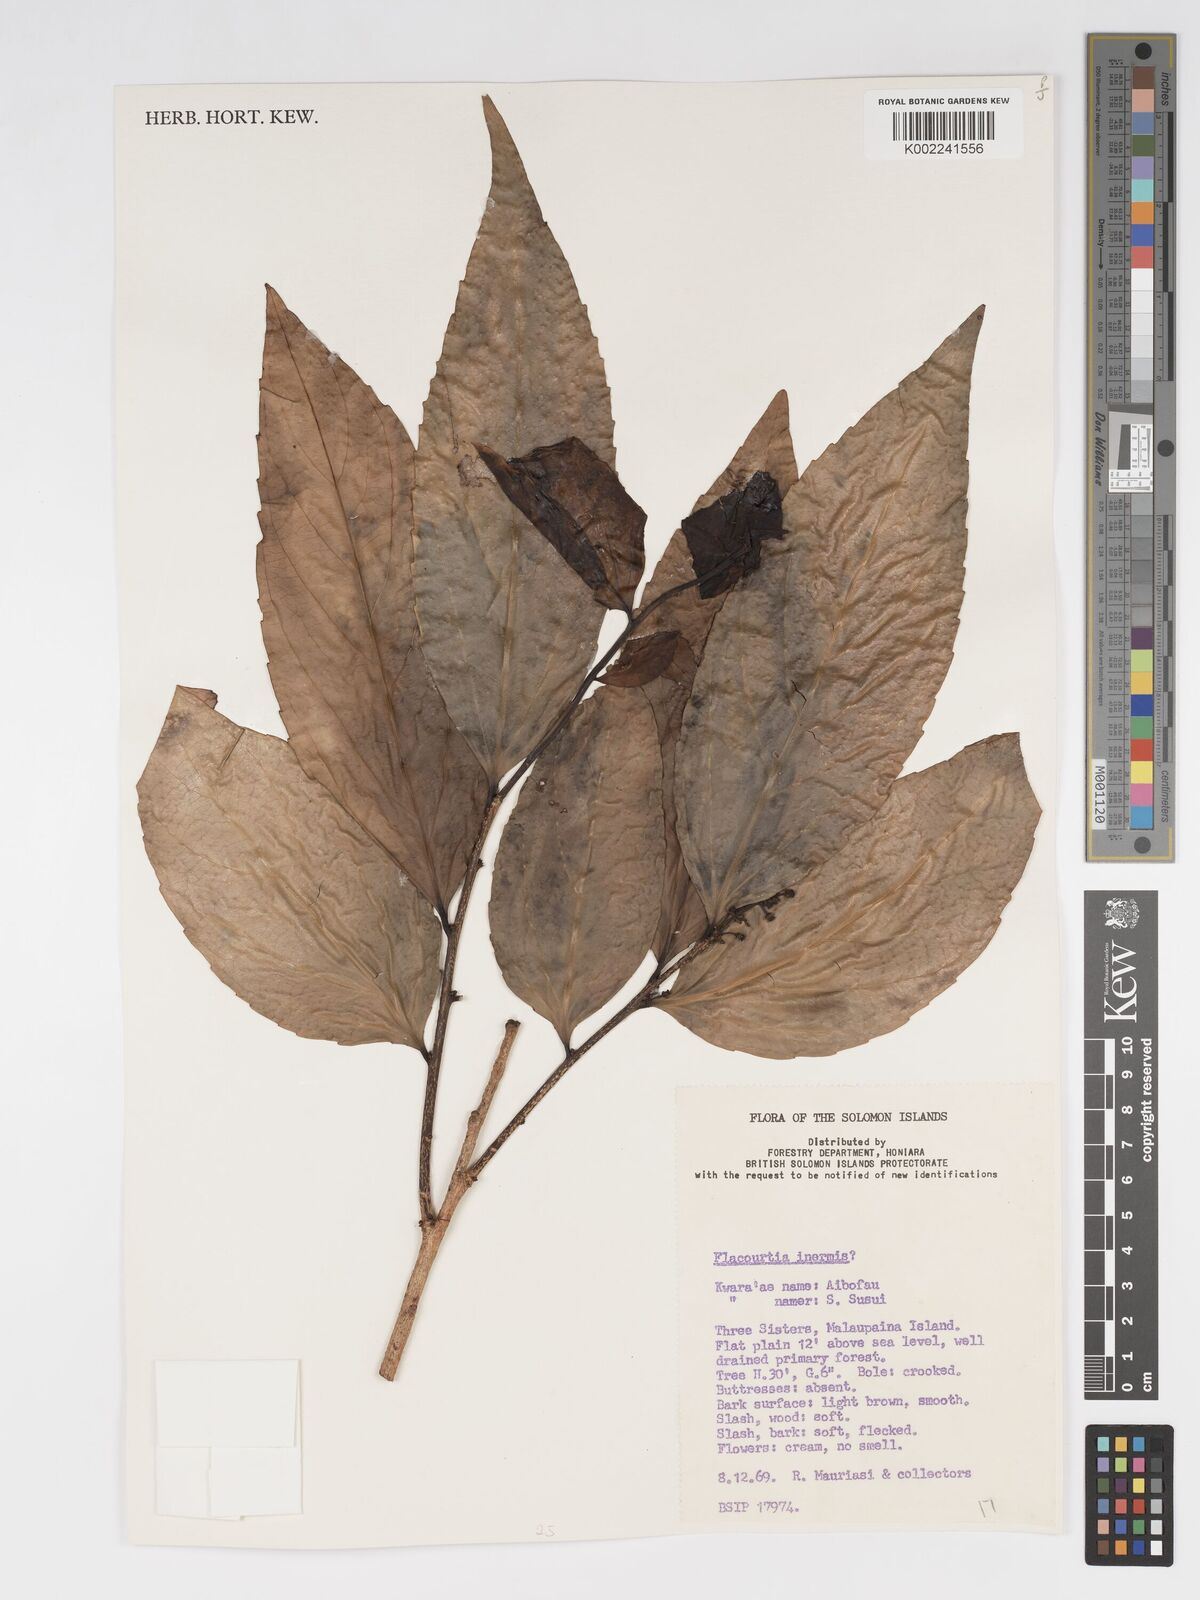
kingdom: Plantae
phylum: Tracheophyta
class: Magnoliopsida
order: Malpighiales
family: Salicaceae
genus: Flacourtia
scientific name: Flacourtia inermis
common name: Plum-of-martinique
